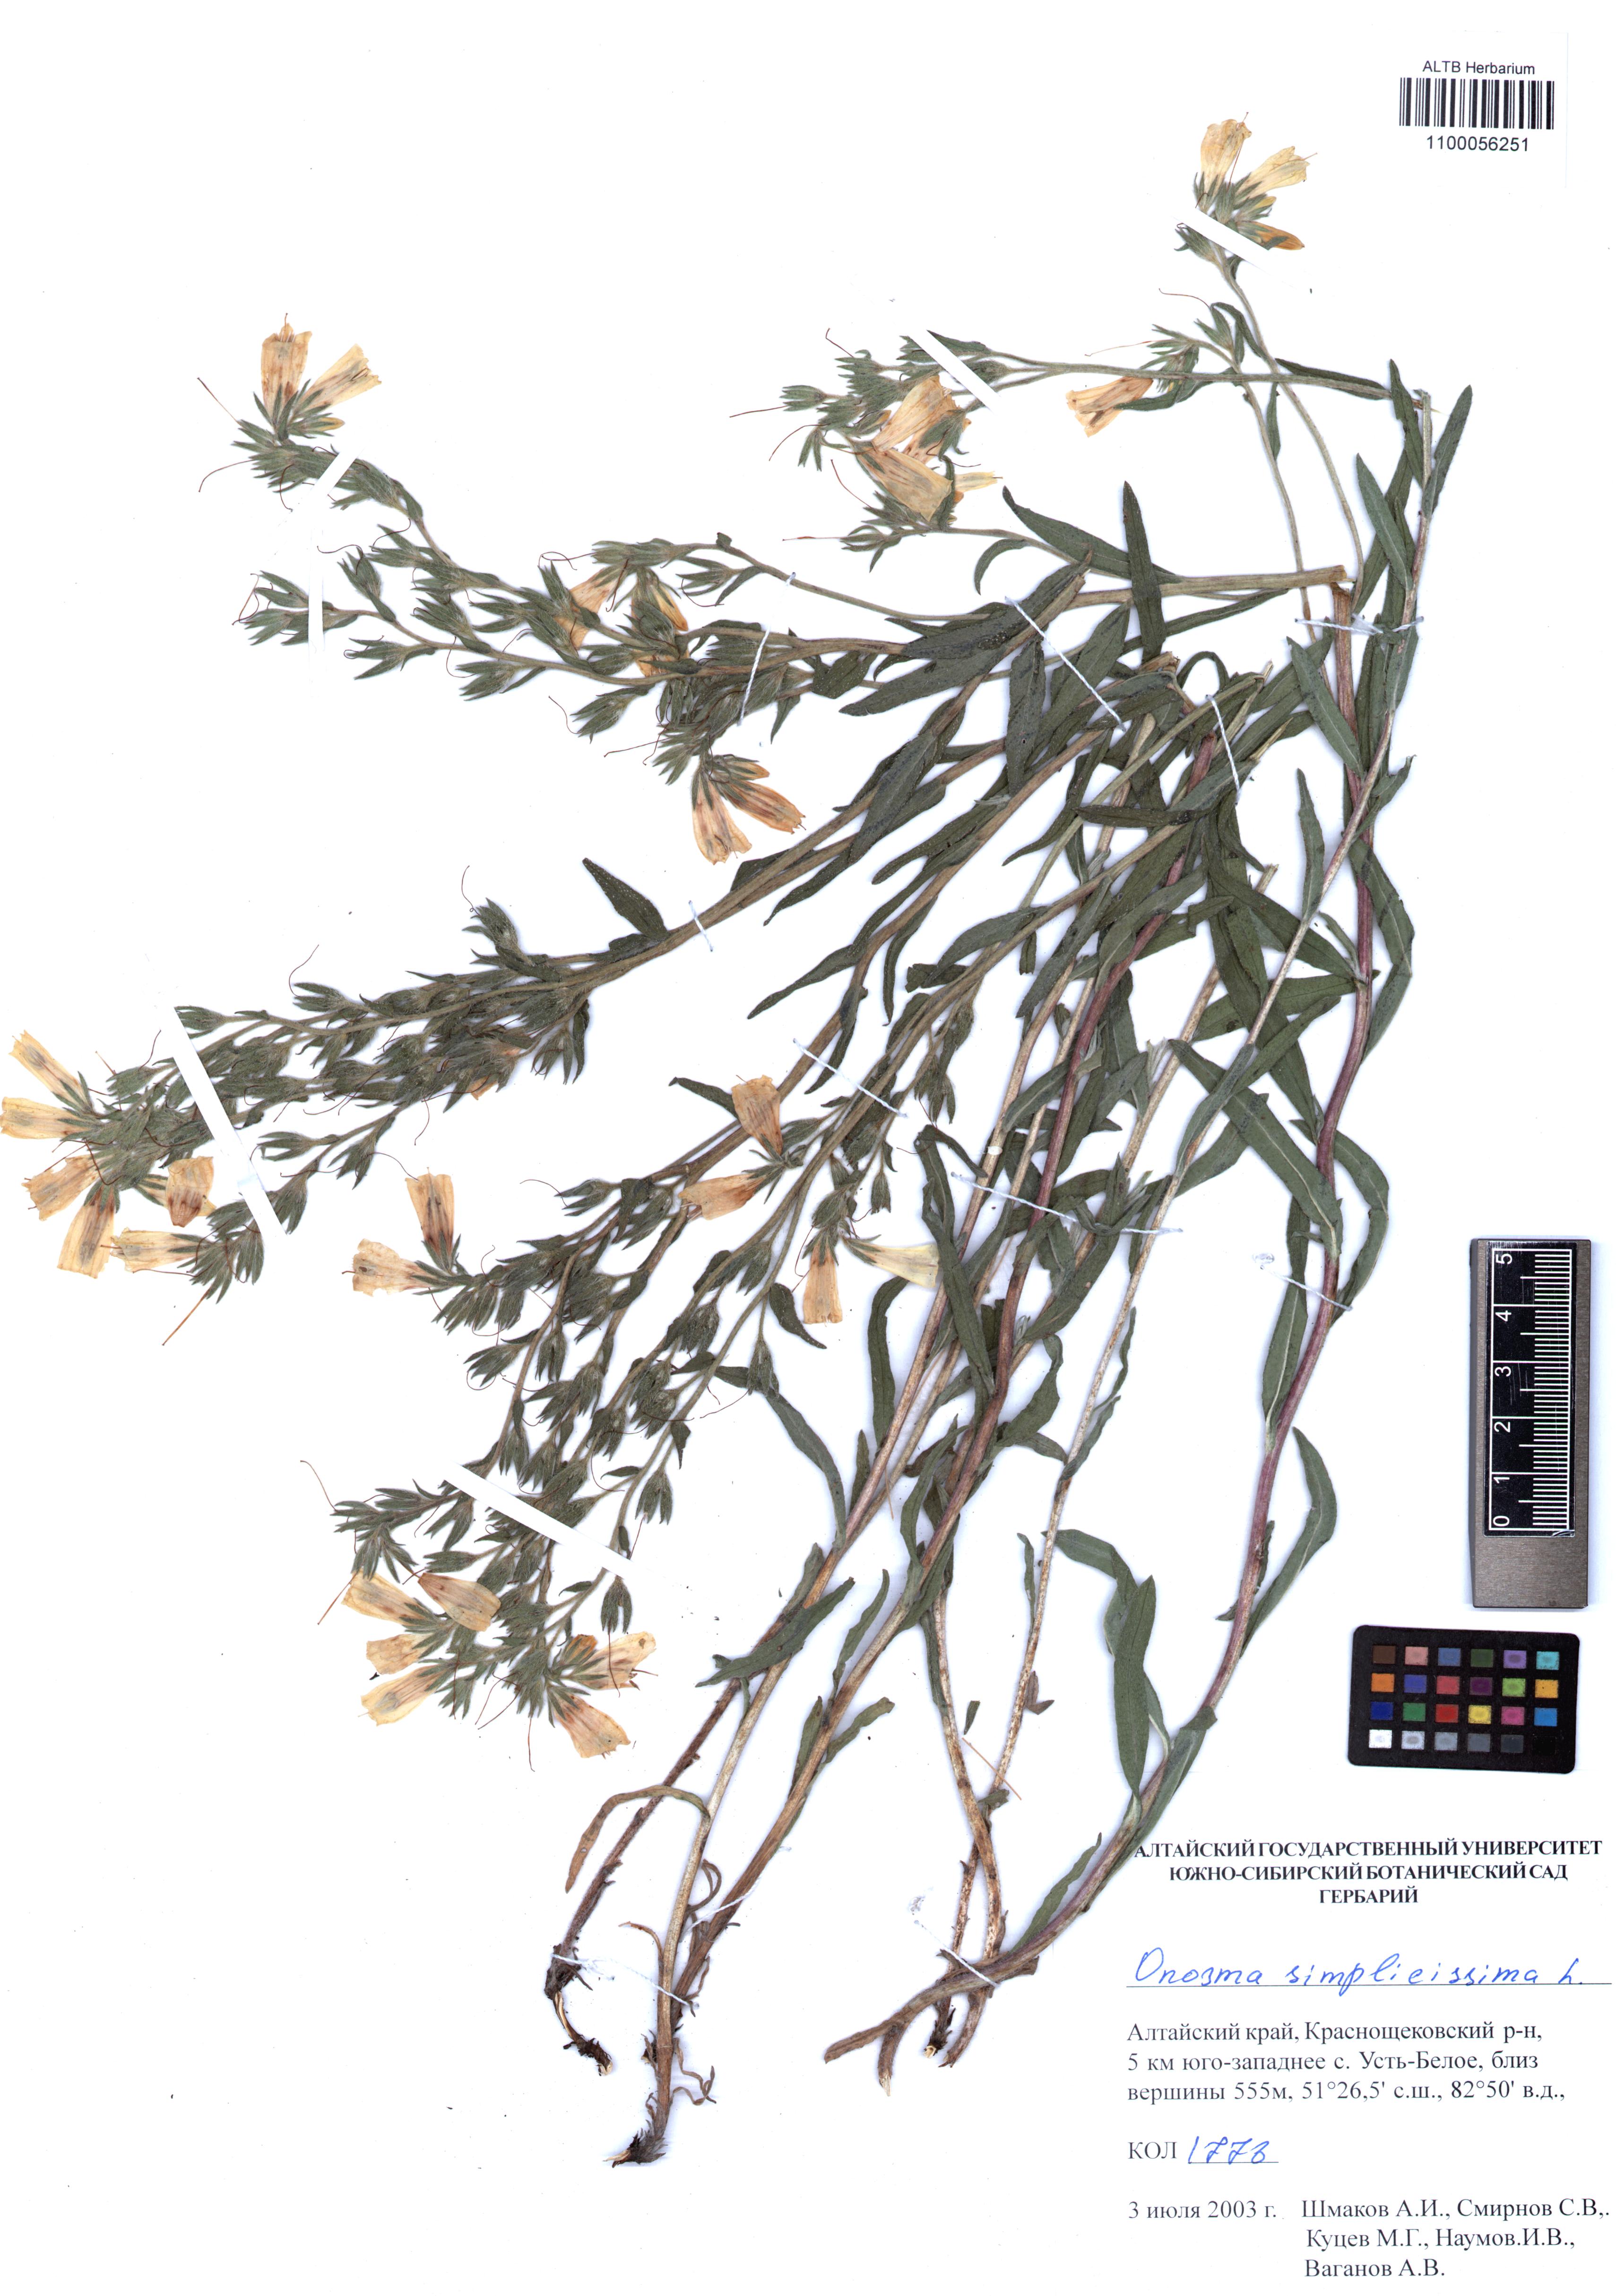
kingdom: Plantae
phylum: Tracheophyta
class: Magnoliopsida
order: Boraginales
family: Boraginaceae
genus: Onosma
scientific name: Onosma simplicissima
